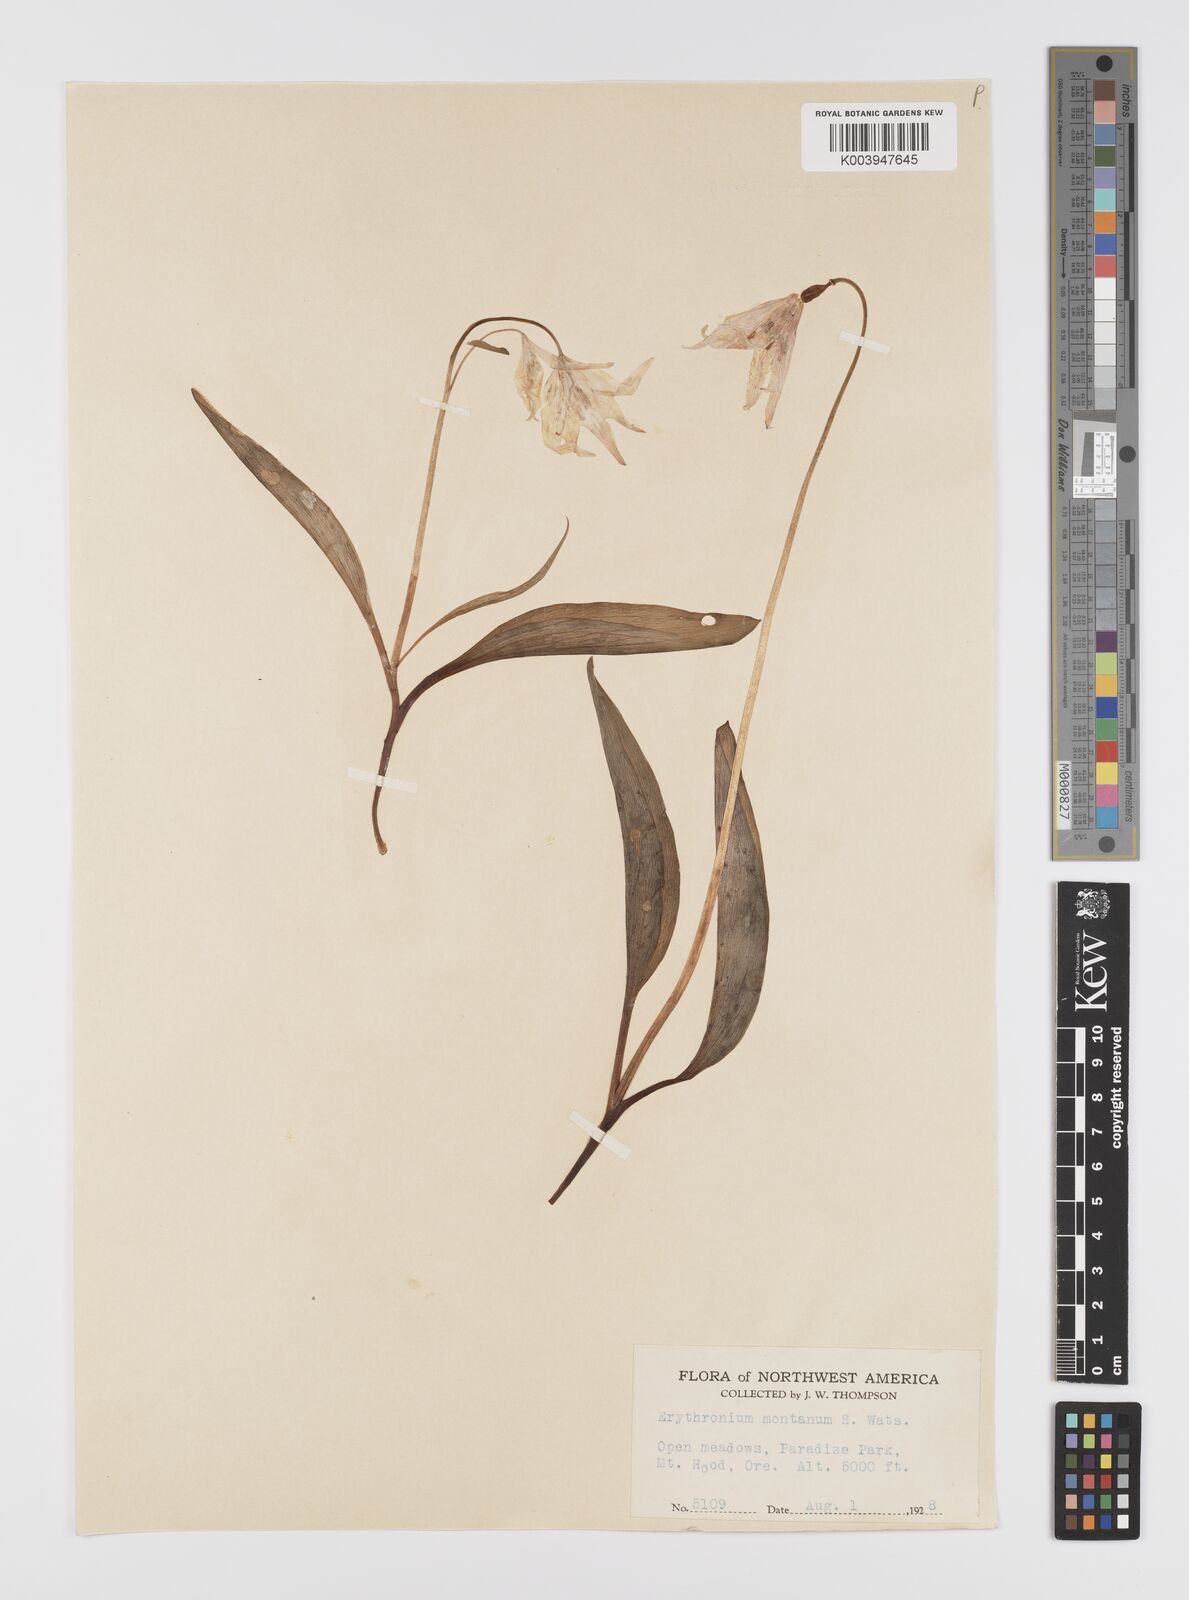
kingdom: Plantae
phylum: Tracheophyta
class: Liliopsida
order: Liliales
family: Liliaceae
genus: Erythronium
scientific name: Erythronium montanum
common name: Avalanche lily
